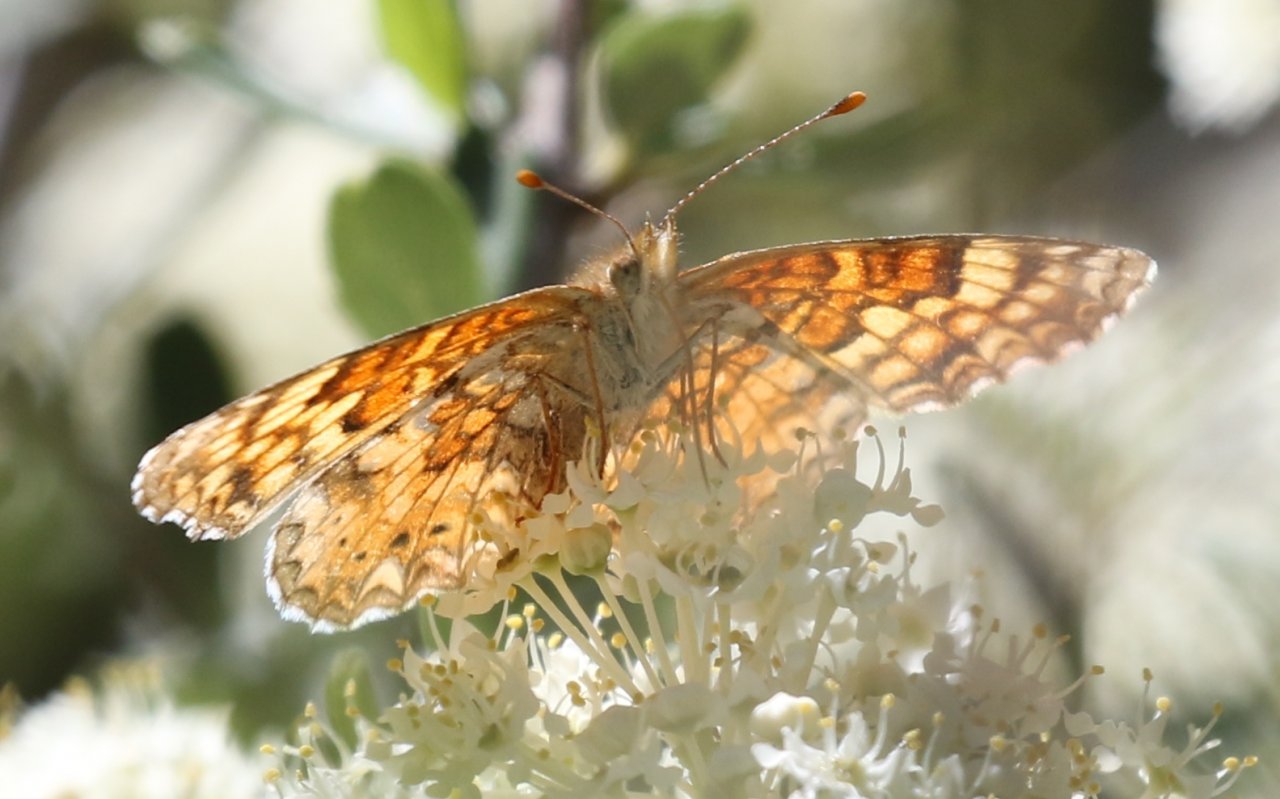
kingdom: Animalia
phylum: Arthropoda
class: Insecta
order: Lepidoptera
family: Nymphalidae
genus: Phyciodes
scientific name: Phyciodes orseis
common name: California Crescent
